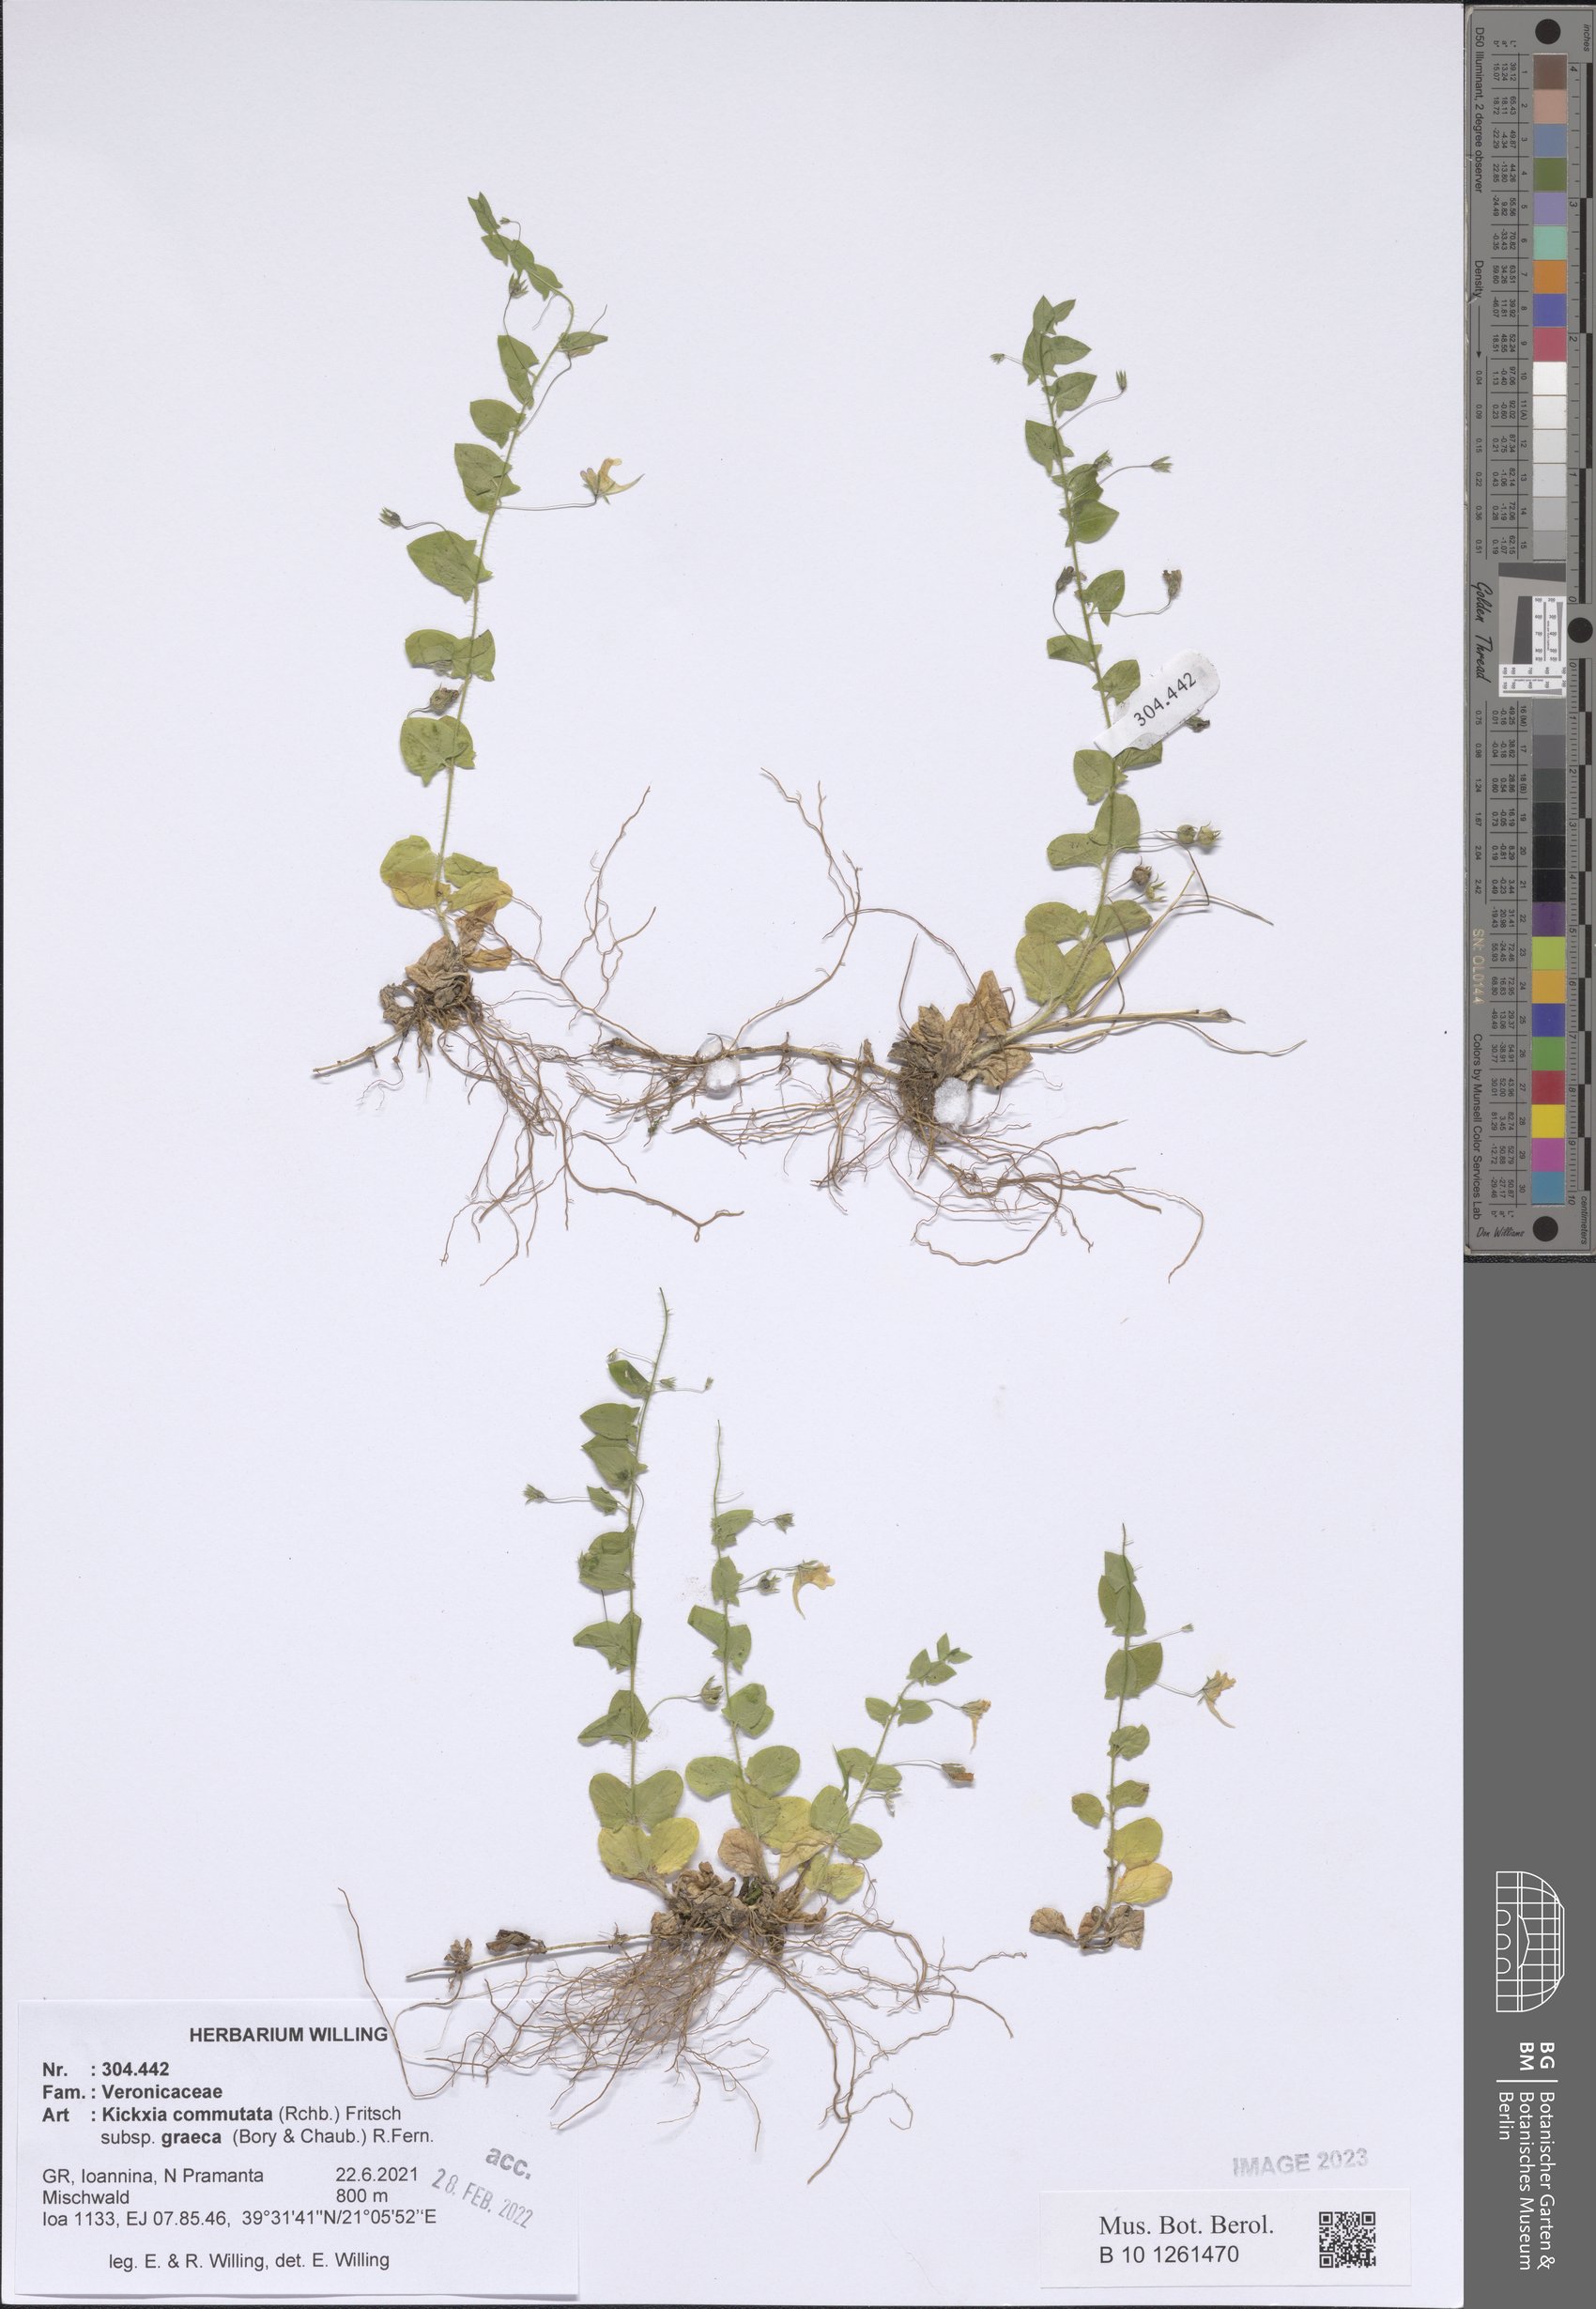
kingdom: Plantae
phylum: Tracheophyta
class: Magnoliopsida
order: Lamiales
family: Plantaginaceae
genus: Kickxia
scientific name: Kickxia commutata
